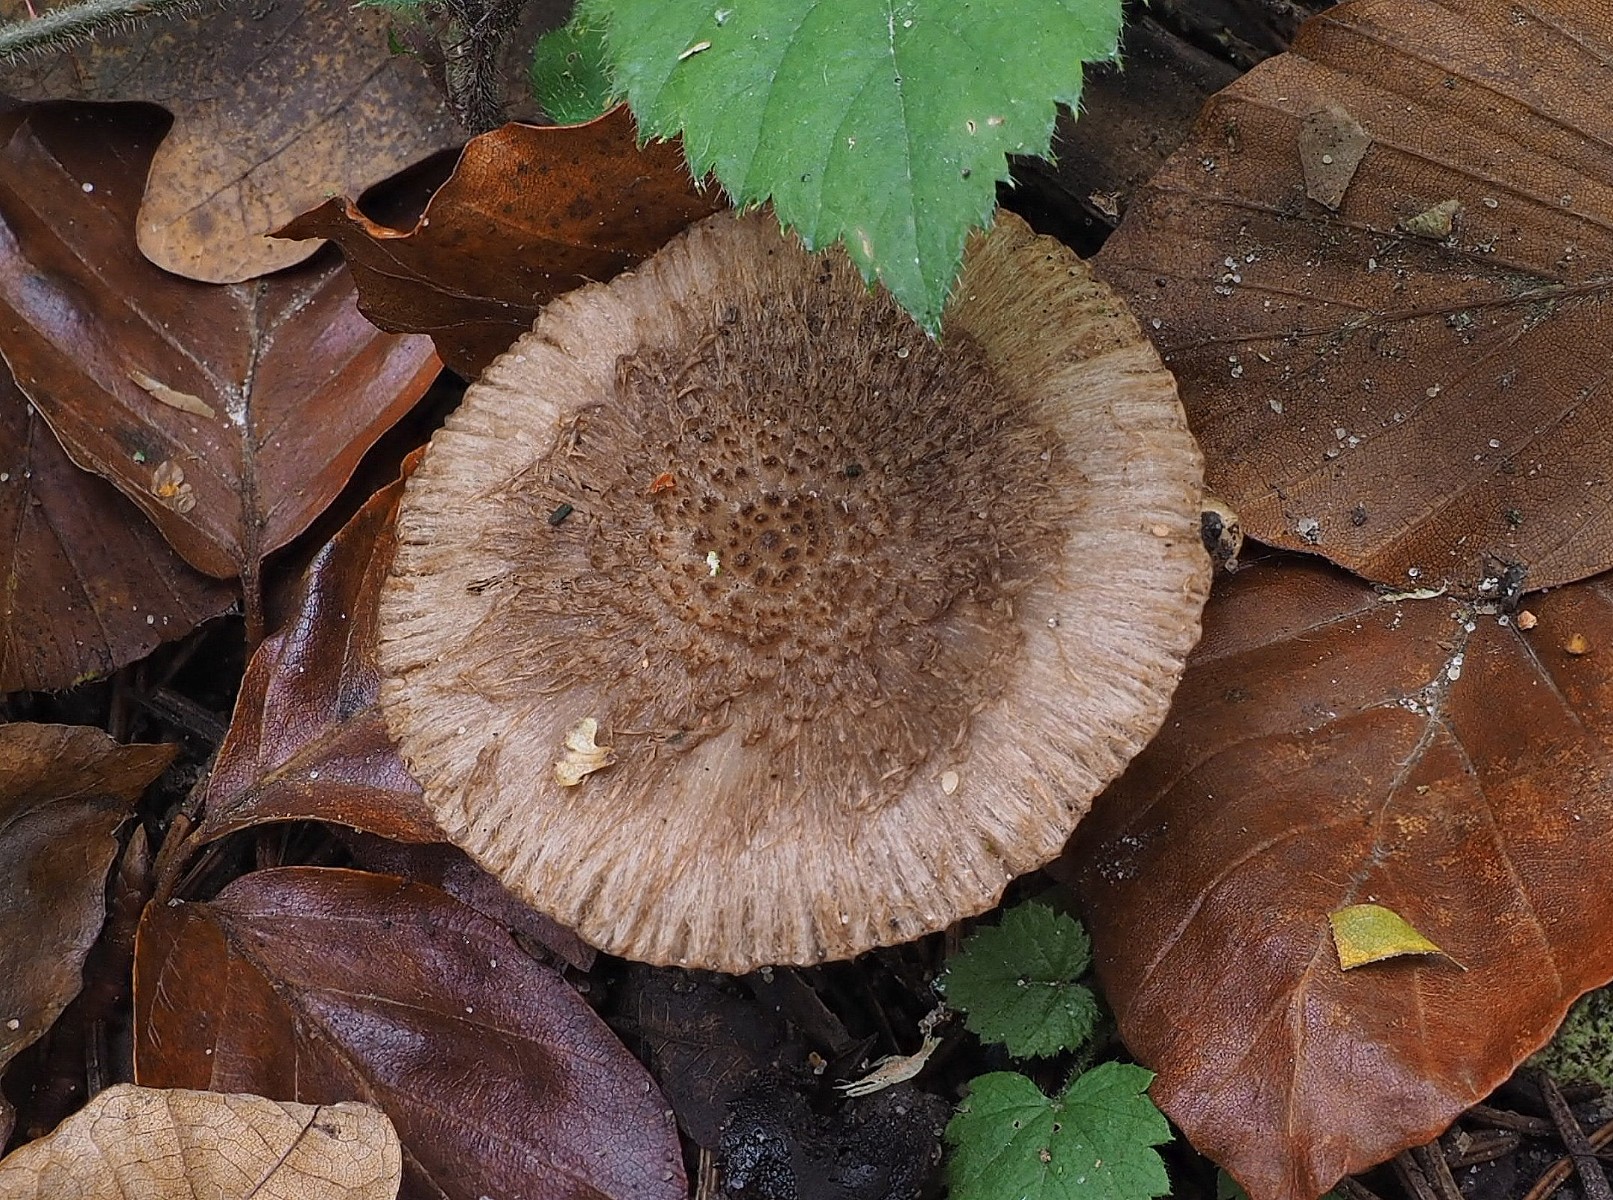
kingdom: Fungi
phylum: Basidiomycota
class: Agaricomycetes
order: Agaricales
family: Inocybaceae
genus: Inocybe
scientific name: Inocybe cincinnata
